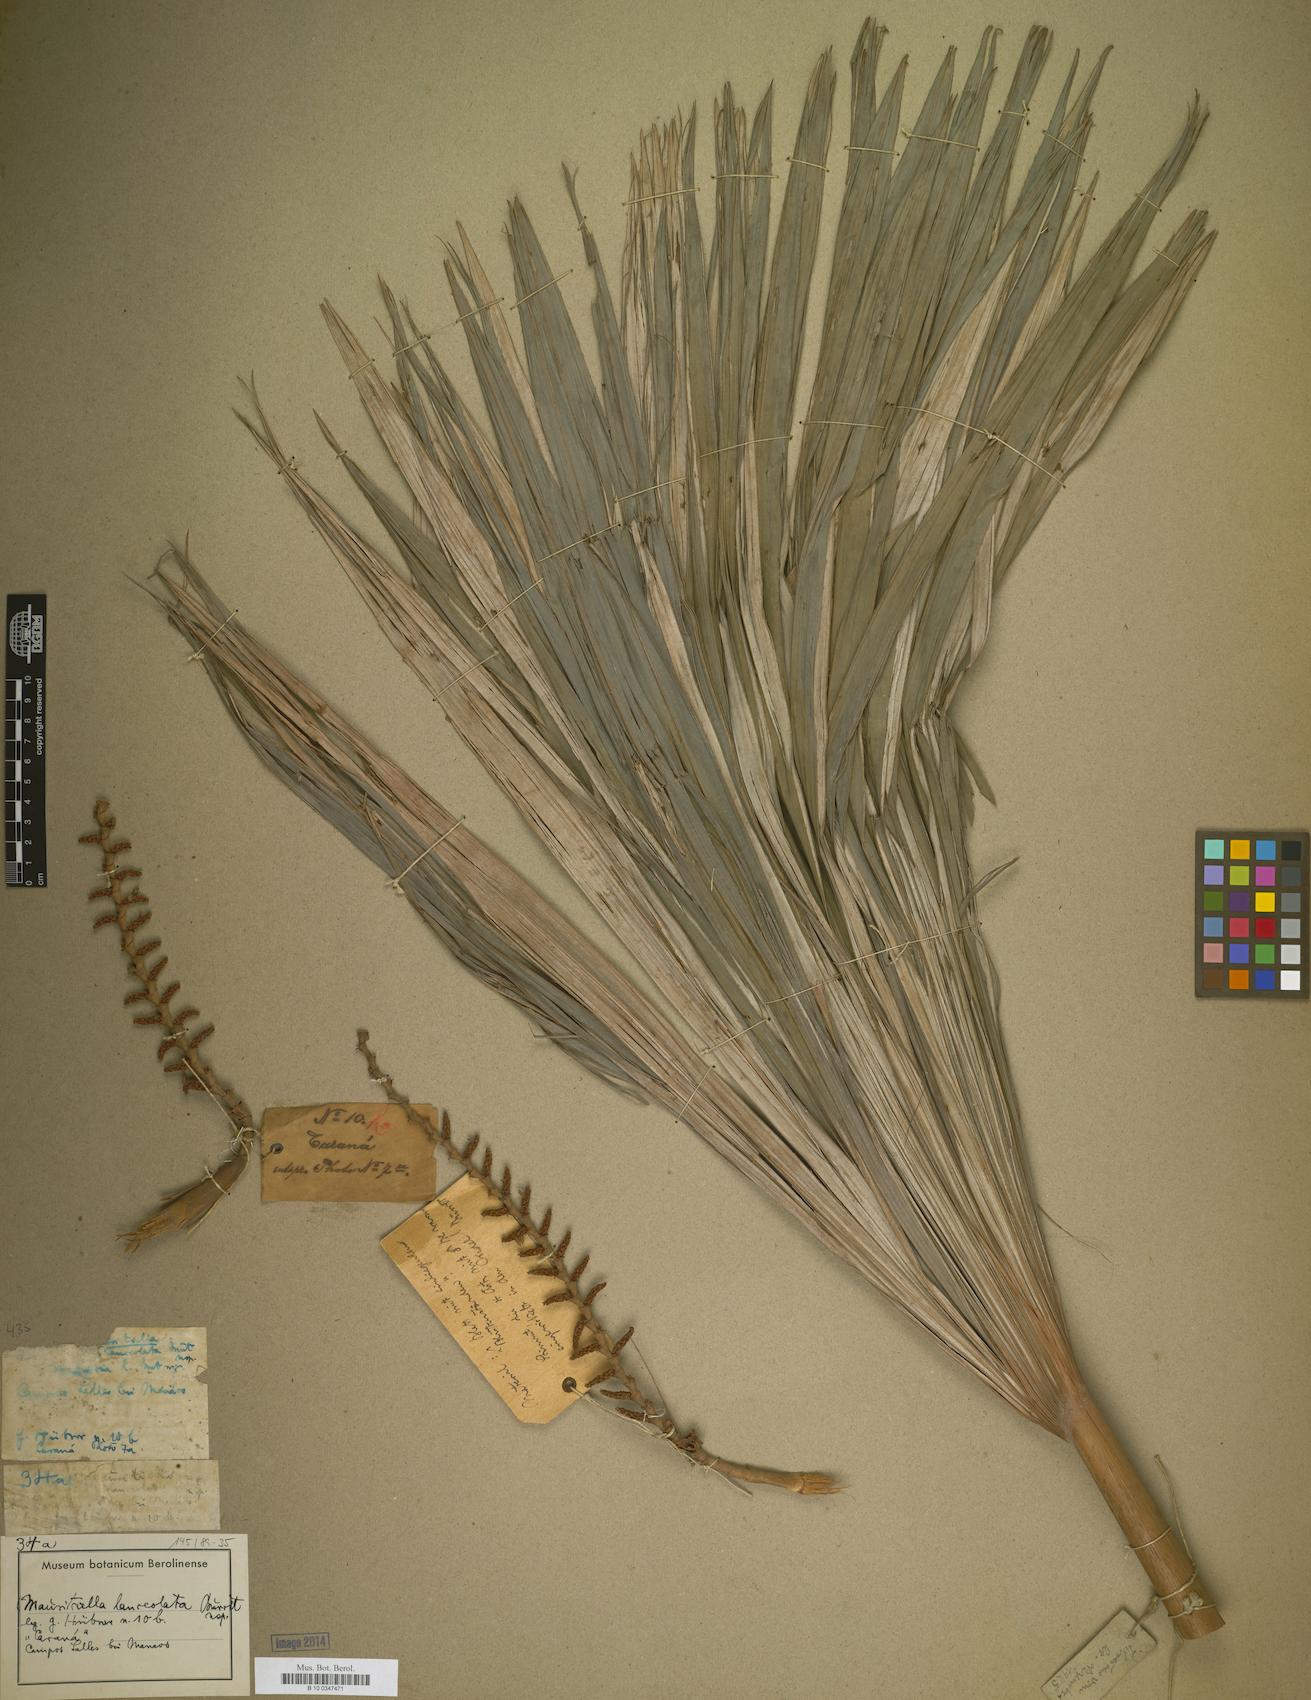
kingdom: Plantae
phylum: Tracheophyta
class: Liliopsida
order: Arecales
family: Arecaceae
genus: Mauritiella
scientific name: Mauritiella
